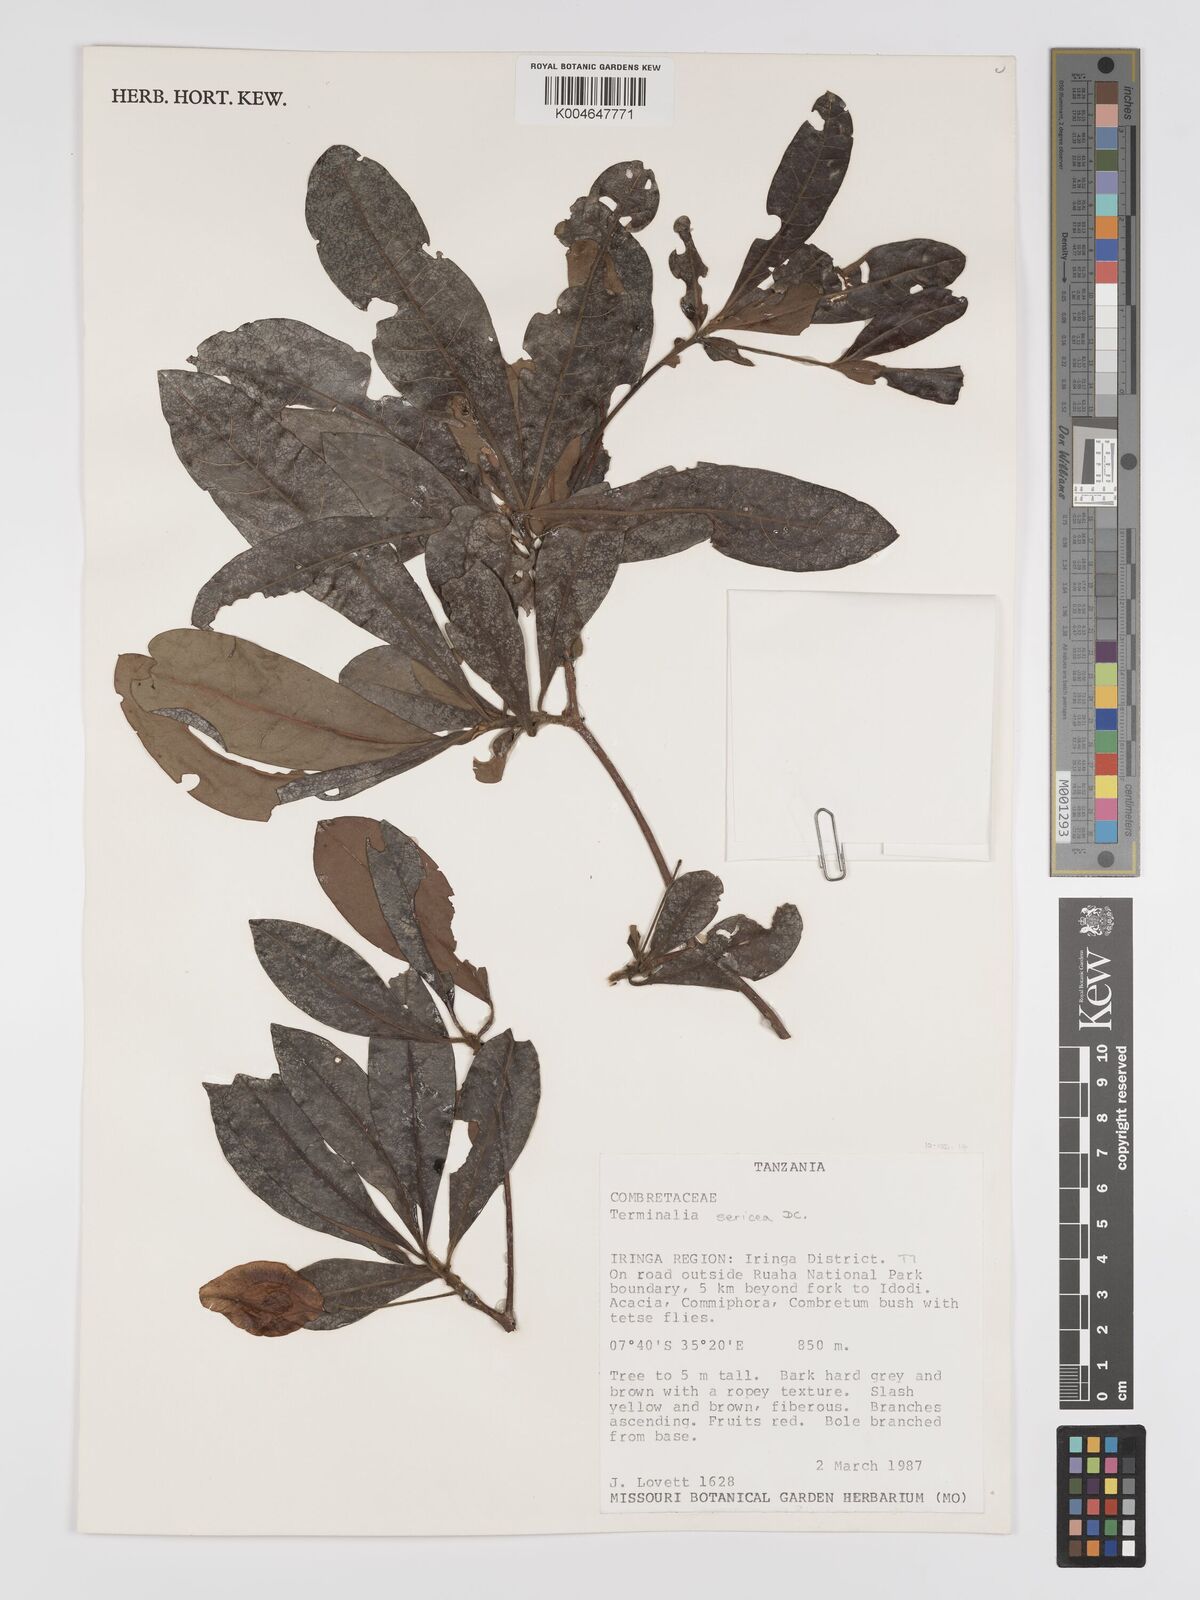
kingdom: Plantae
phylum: Tracheophyta
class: Magnoliopsida
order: Myrtales
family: Combretaceae
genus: Terminalia
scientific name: Terminalia
